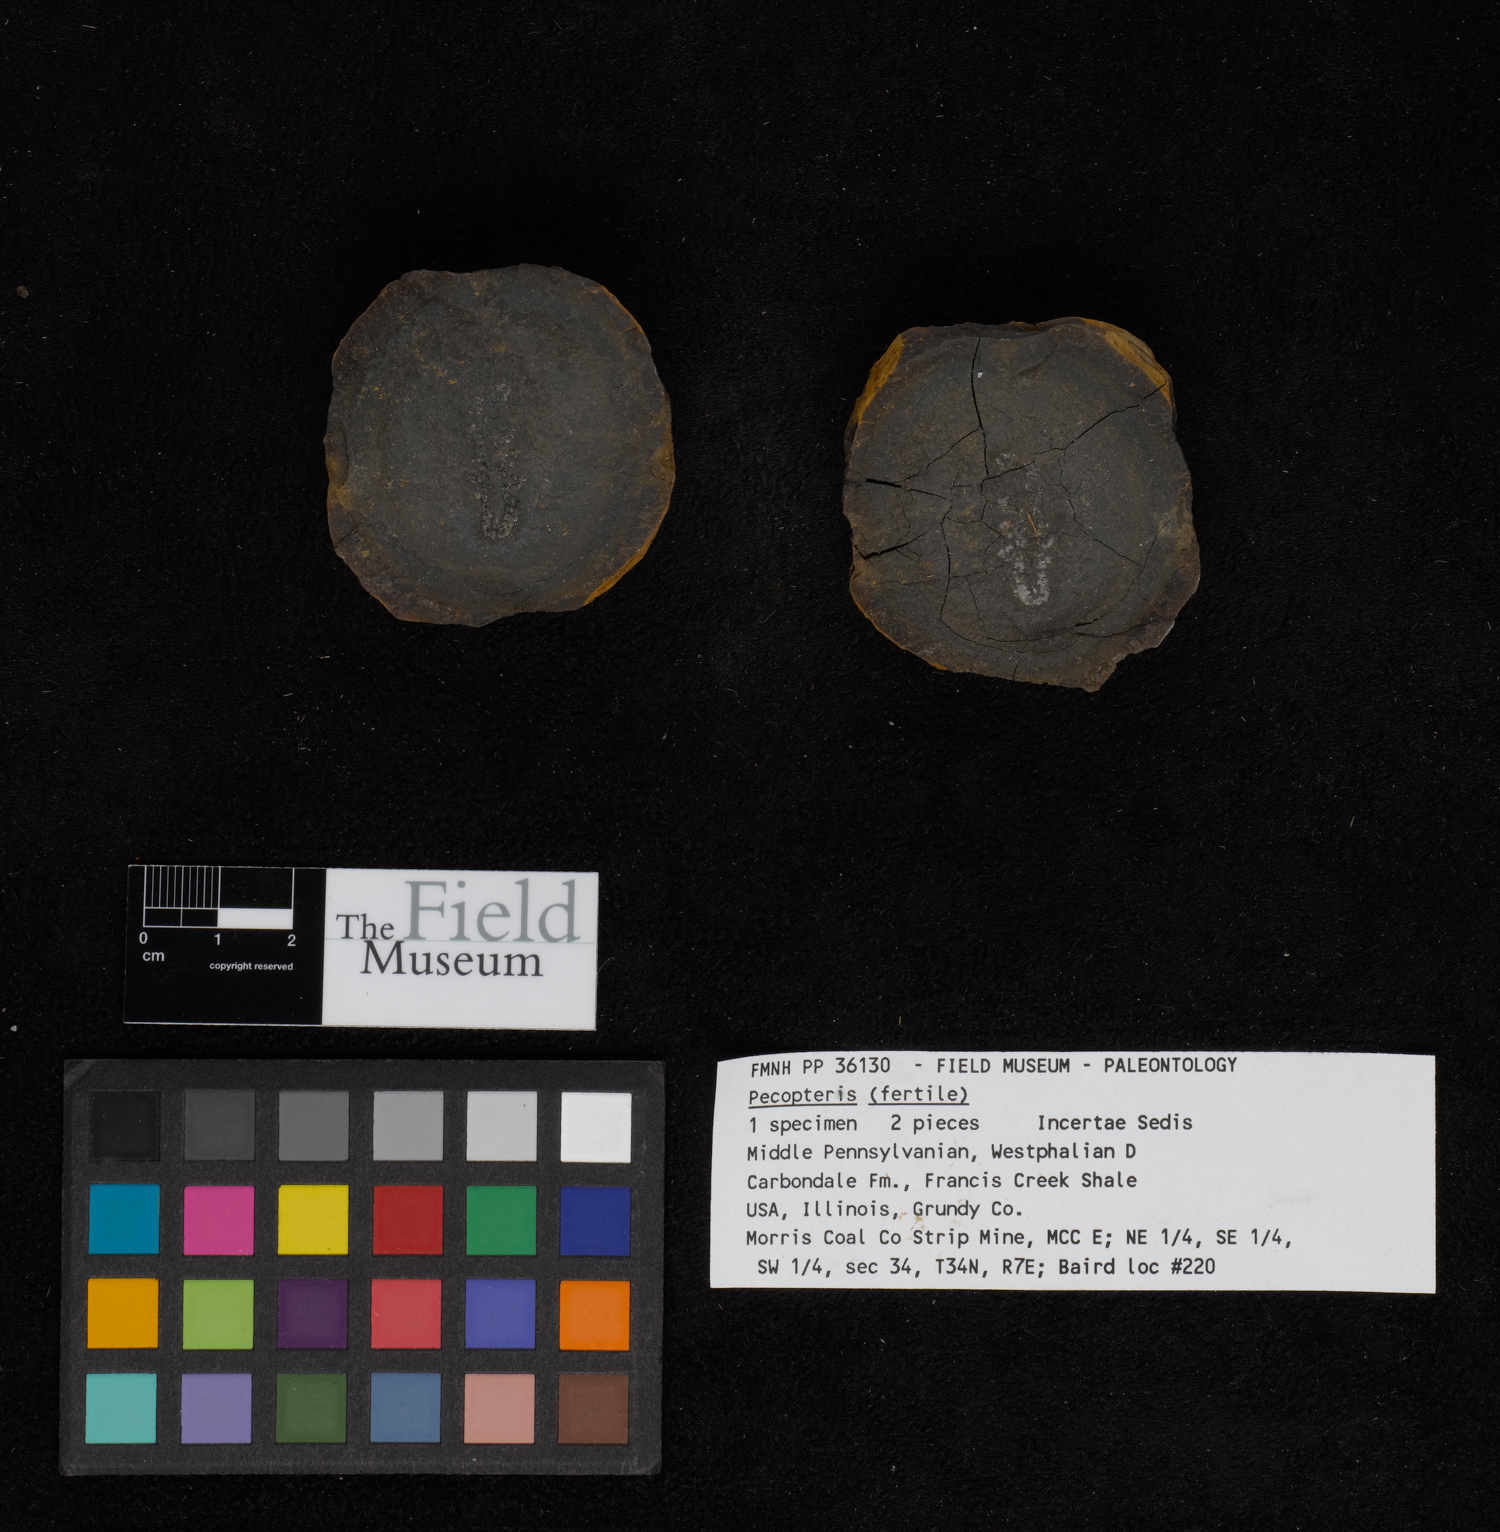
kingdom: Plantae
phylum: Tracheophyta
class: Polypodiopsida
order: Marattiales
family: Asterothecaceae
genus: Pecopteris
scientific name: Pecopteris
